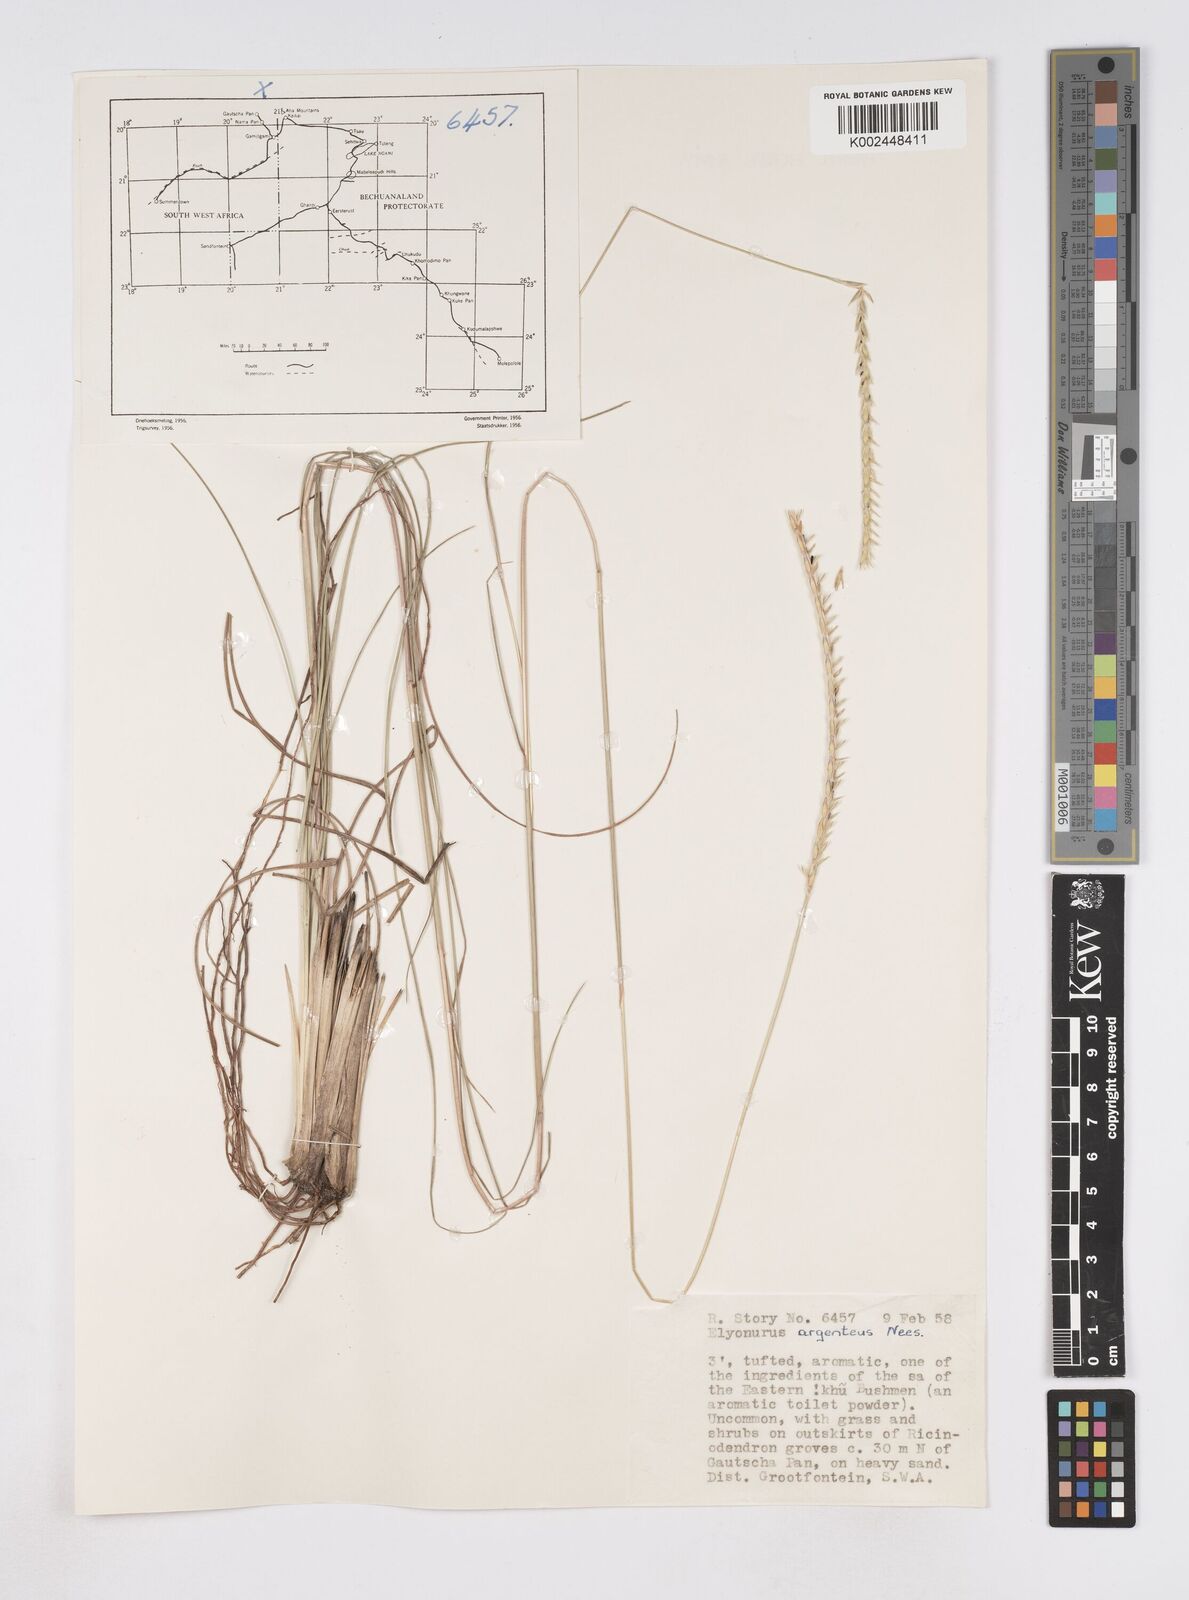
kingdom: Plantae
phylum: Tracheophyta
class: Liliopsida
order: Poales
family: Poaceae
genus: Elionurus
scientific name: Elionurus tripsacoides
